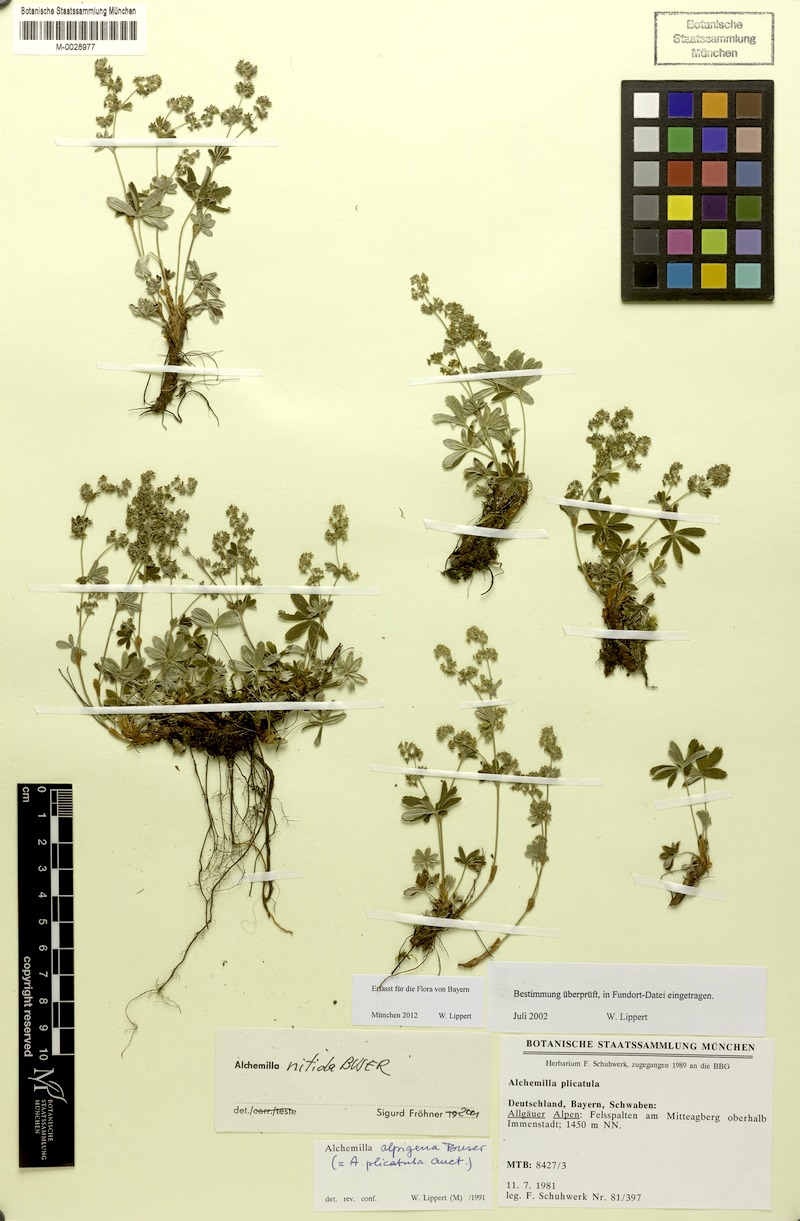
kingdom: Plantae
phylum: Tracheophyta
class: Magnoliopsida
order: Rosales
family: Rosaceae
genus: Alchemilla
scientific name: Alchemilla nitida
